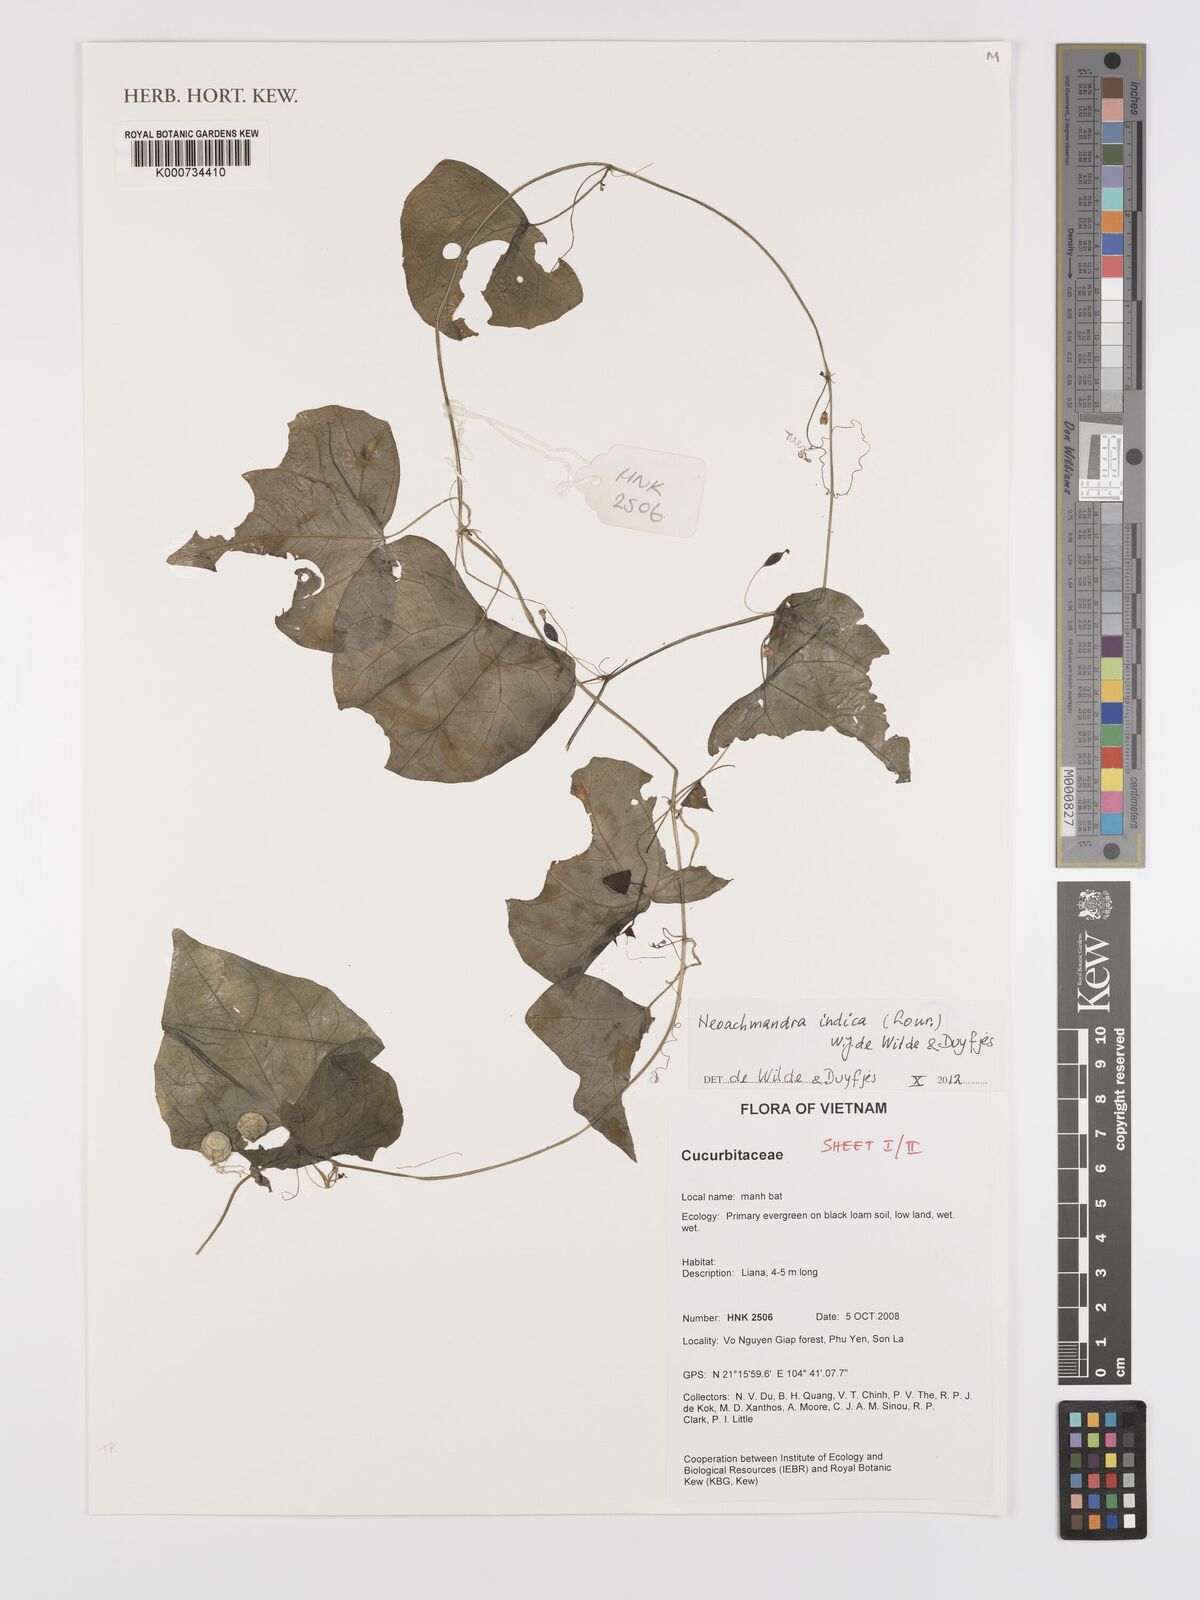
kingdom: Plantae
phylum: Tracheophyta
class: Magnoliopsida
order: Cucurbitales
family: Cucurbitaceae
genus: Zehneria
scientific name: Zehneria odorata
